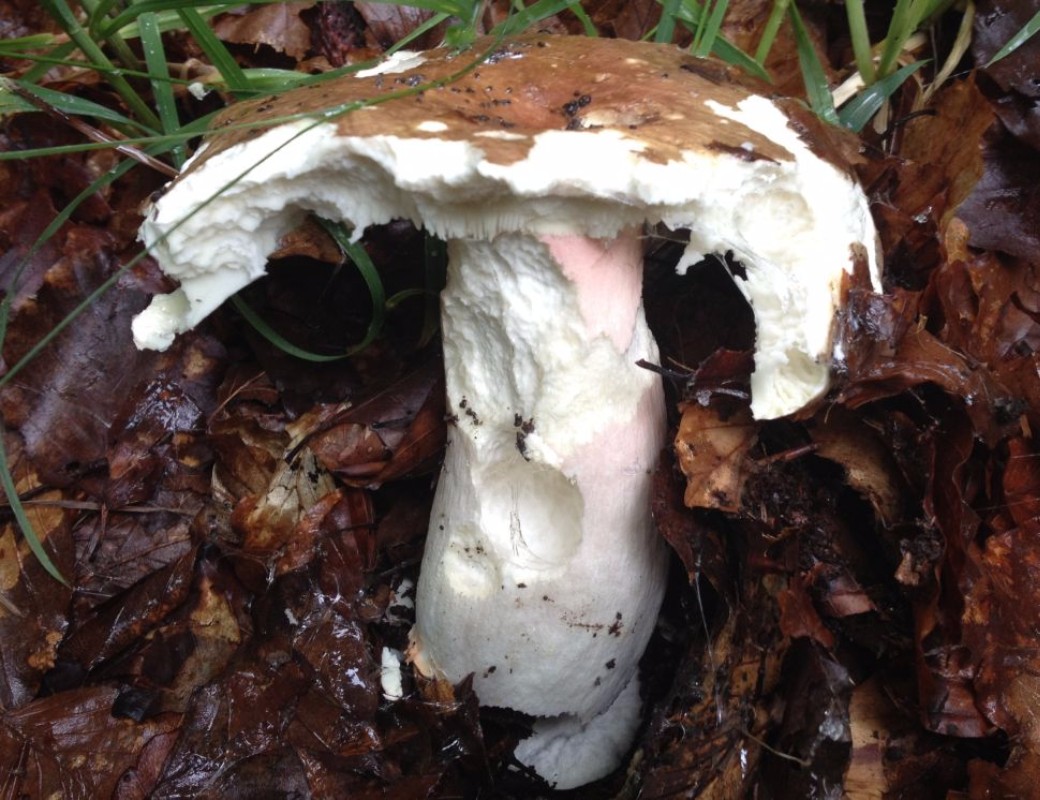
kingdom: Fungi
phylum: Basidiomycota
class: Agaricomycetes
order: Russulales
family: Russulaceae
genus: Russula
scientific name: Russula olivacea
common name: stor skørhat
